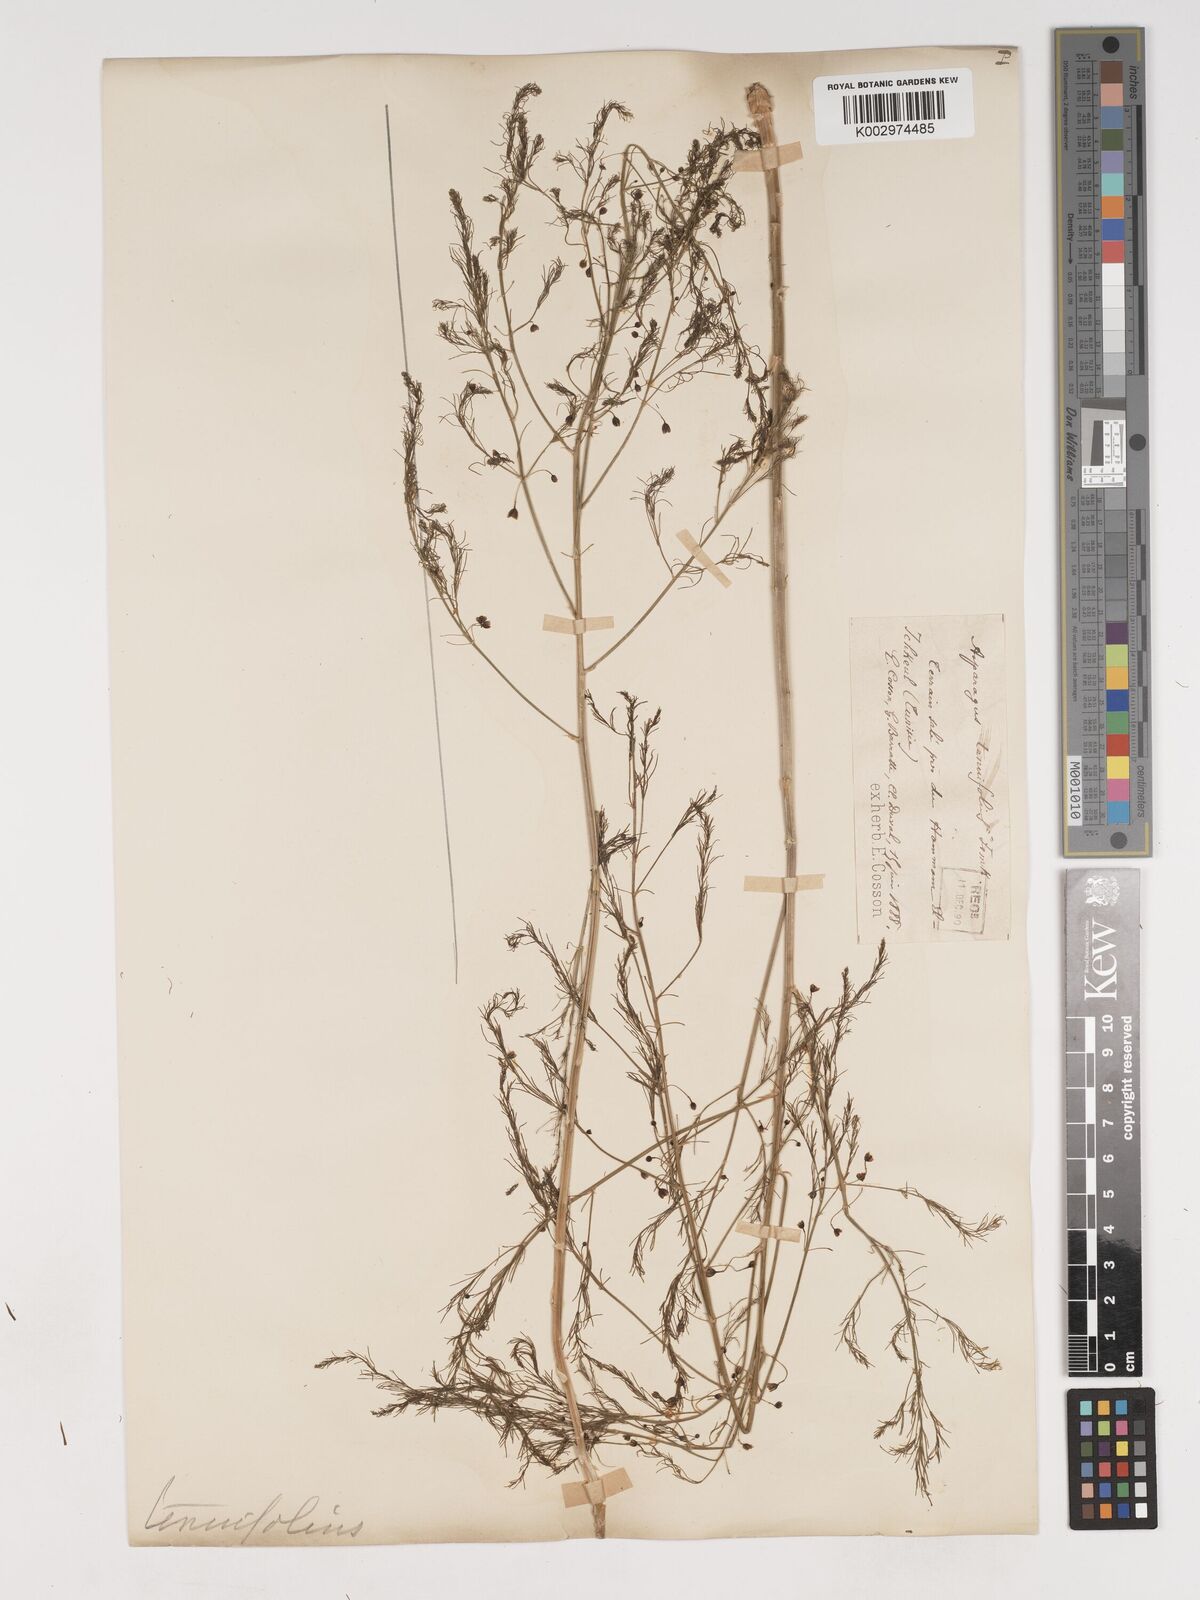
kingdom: Plantae
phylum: Tracheophyta
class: Liliopsida
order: Asparagales
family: Asparagaceae
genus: Asparagus
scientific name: Asparagus tenuifolius
